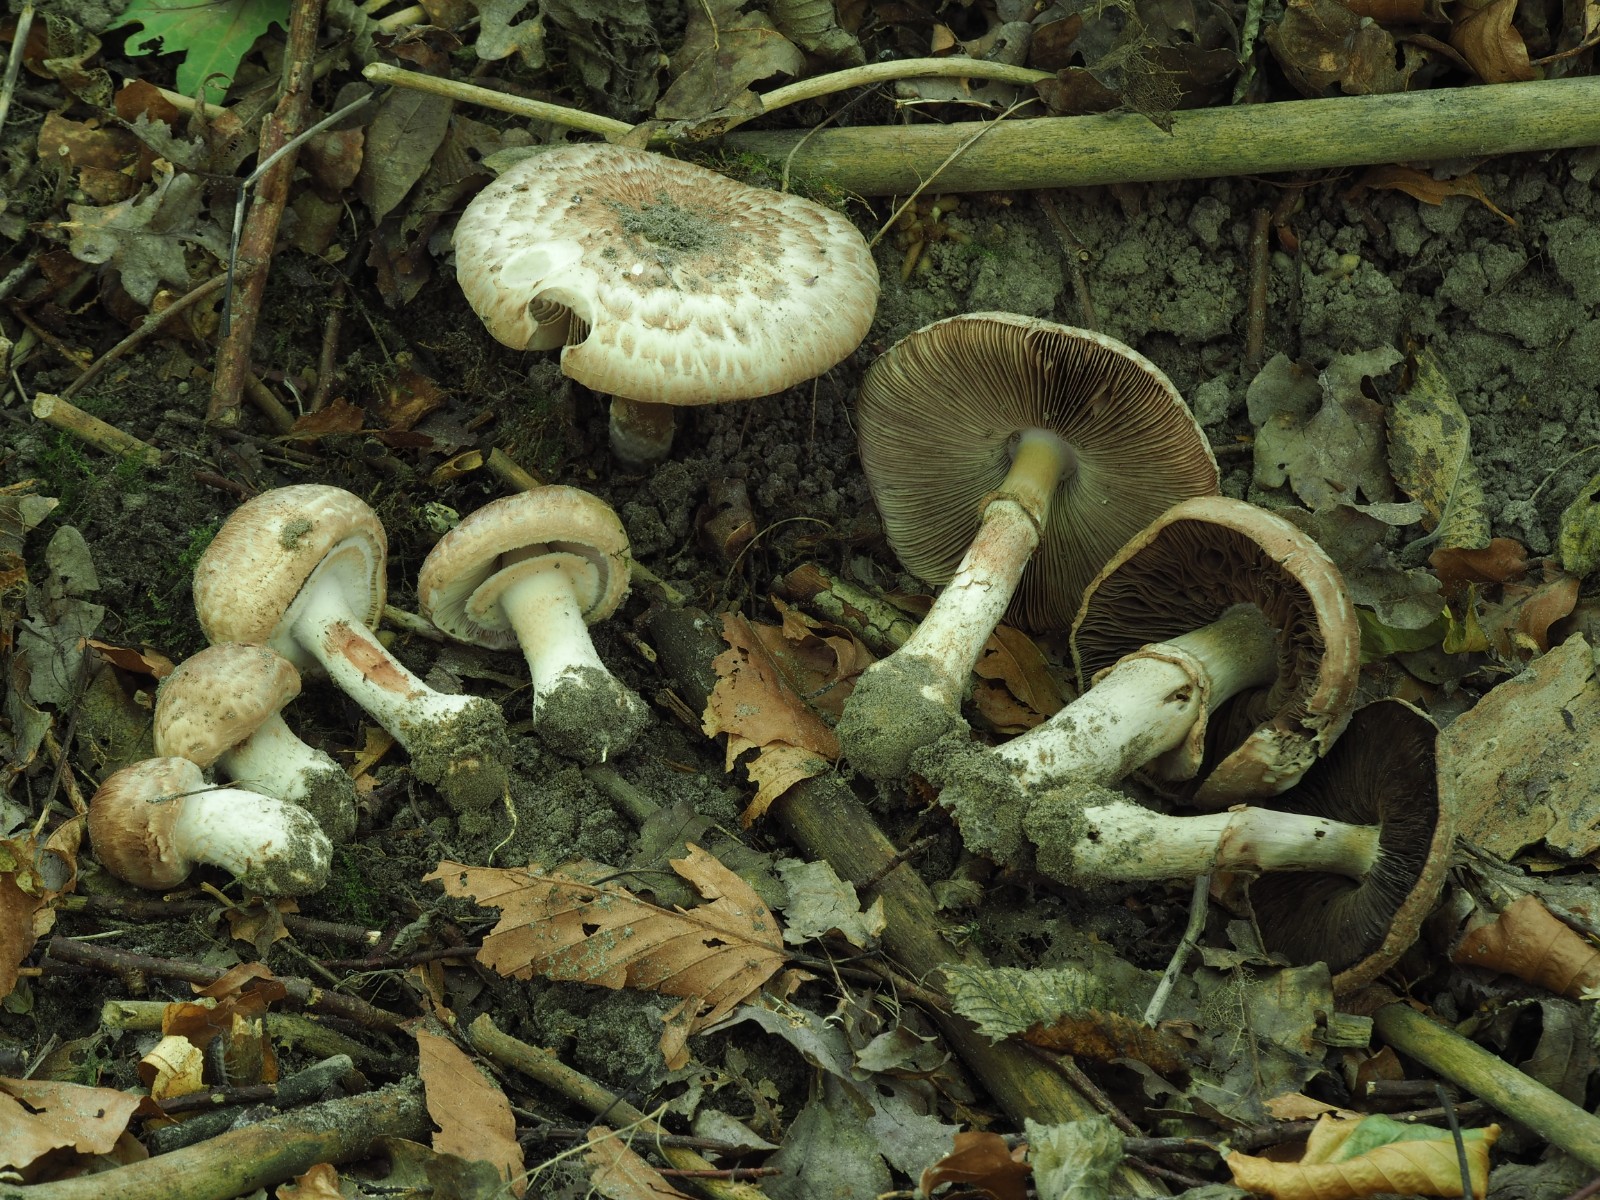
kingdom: Fungi
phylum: Basidiomycota
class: Agaricomycetes
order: Agaricales
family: Agaricaceae
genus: Agaricus
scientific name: Agaricus lanipes
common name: uldstokket champignon
